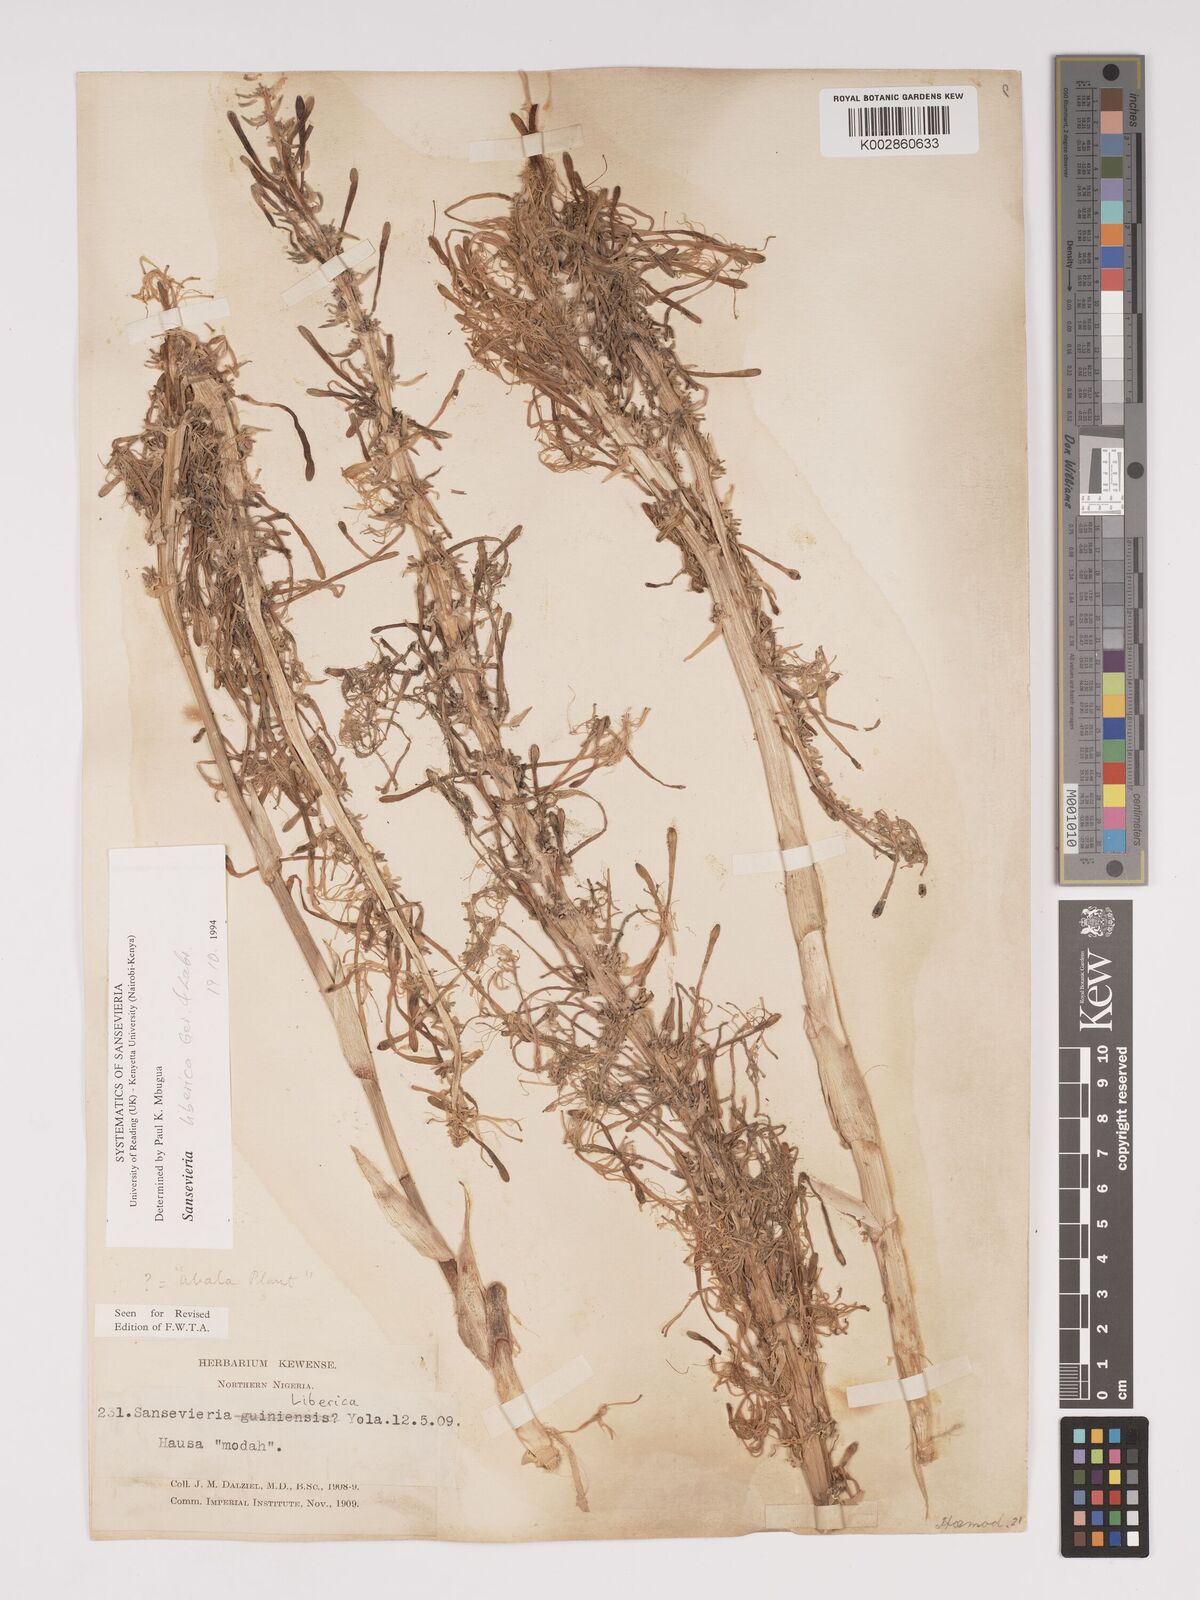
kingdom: Plantae
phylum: Tracheophyta
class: Liliopsida
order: Asparagales
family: Asparagaceae
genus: Dracaena
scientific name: Dracaena liberica
